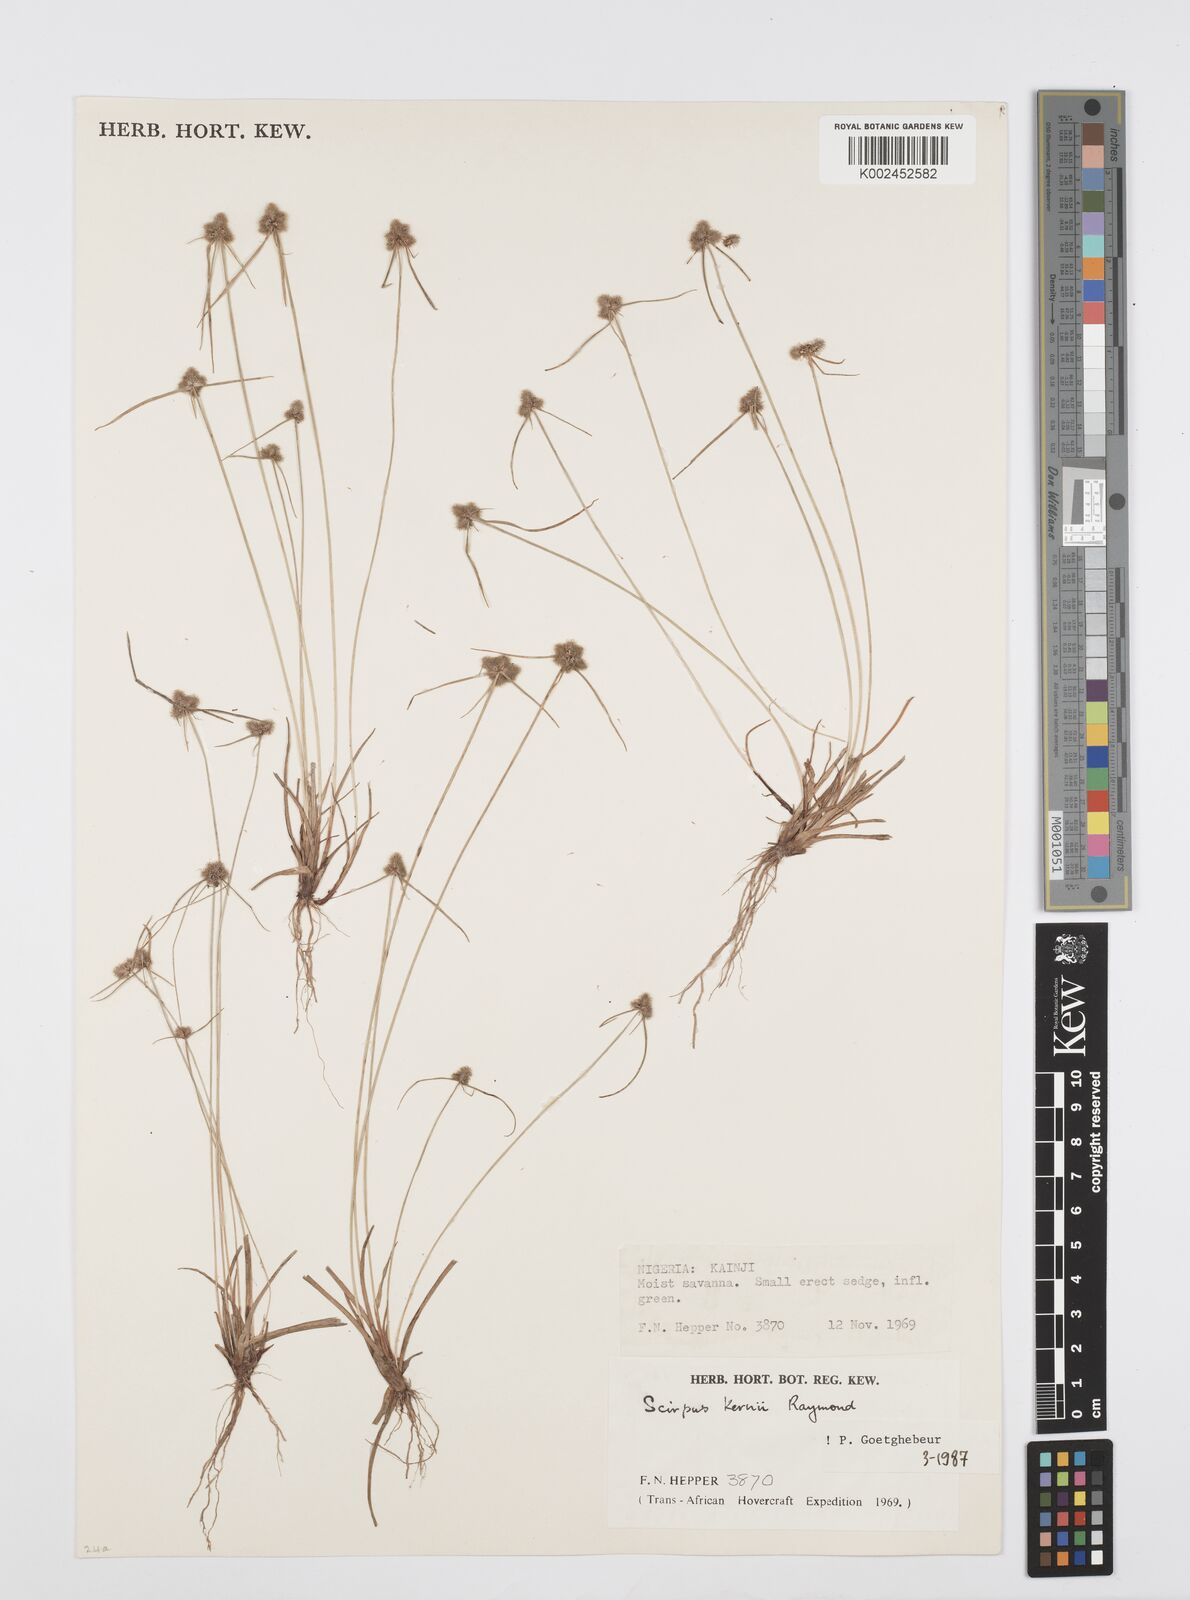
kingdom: Plantae
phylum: Tracheophyta
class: Liliopsida
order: Poales
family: Cyperaceae
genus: Cyperus
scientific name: Cyperus kernii
